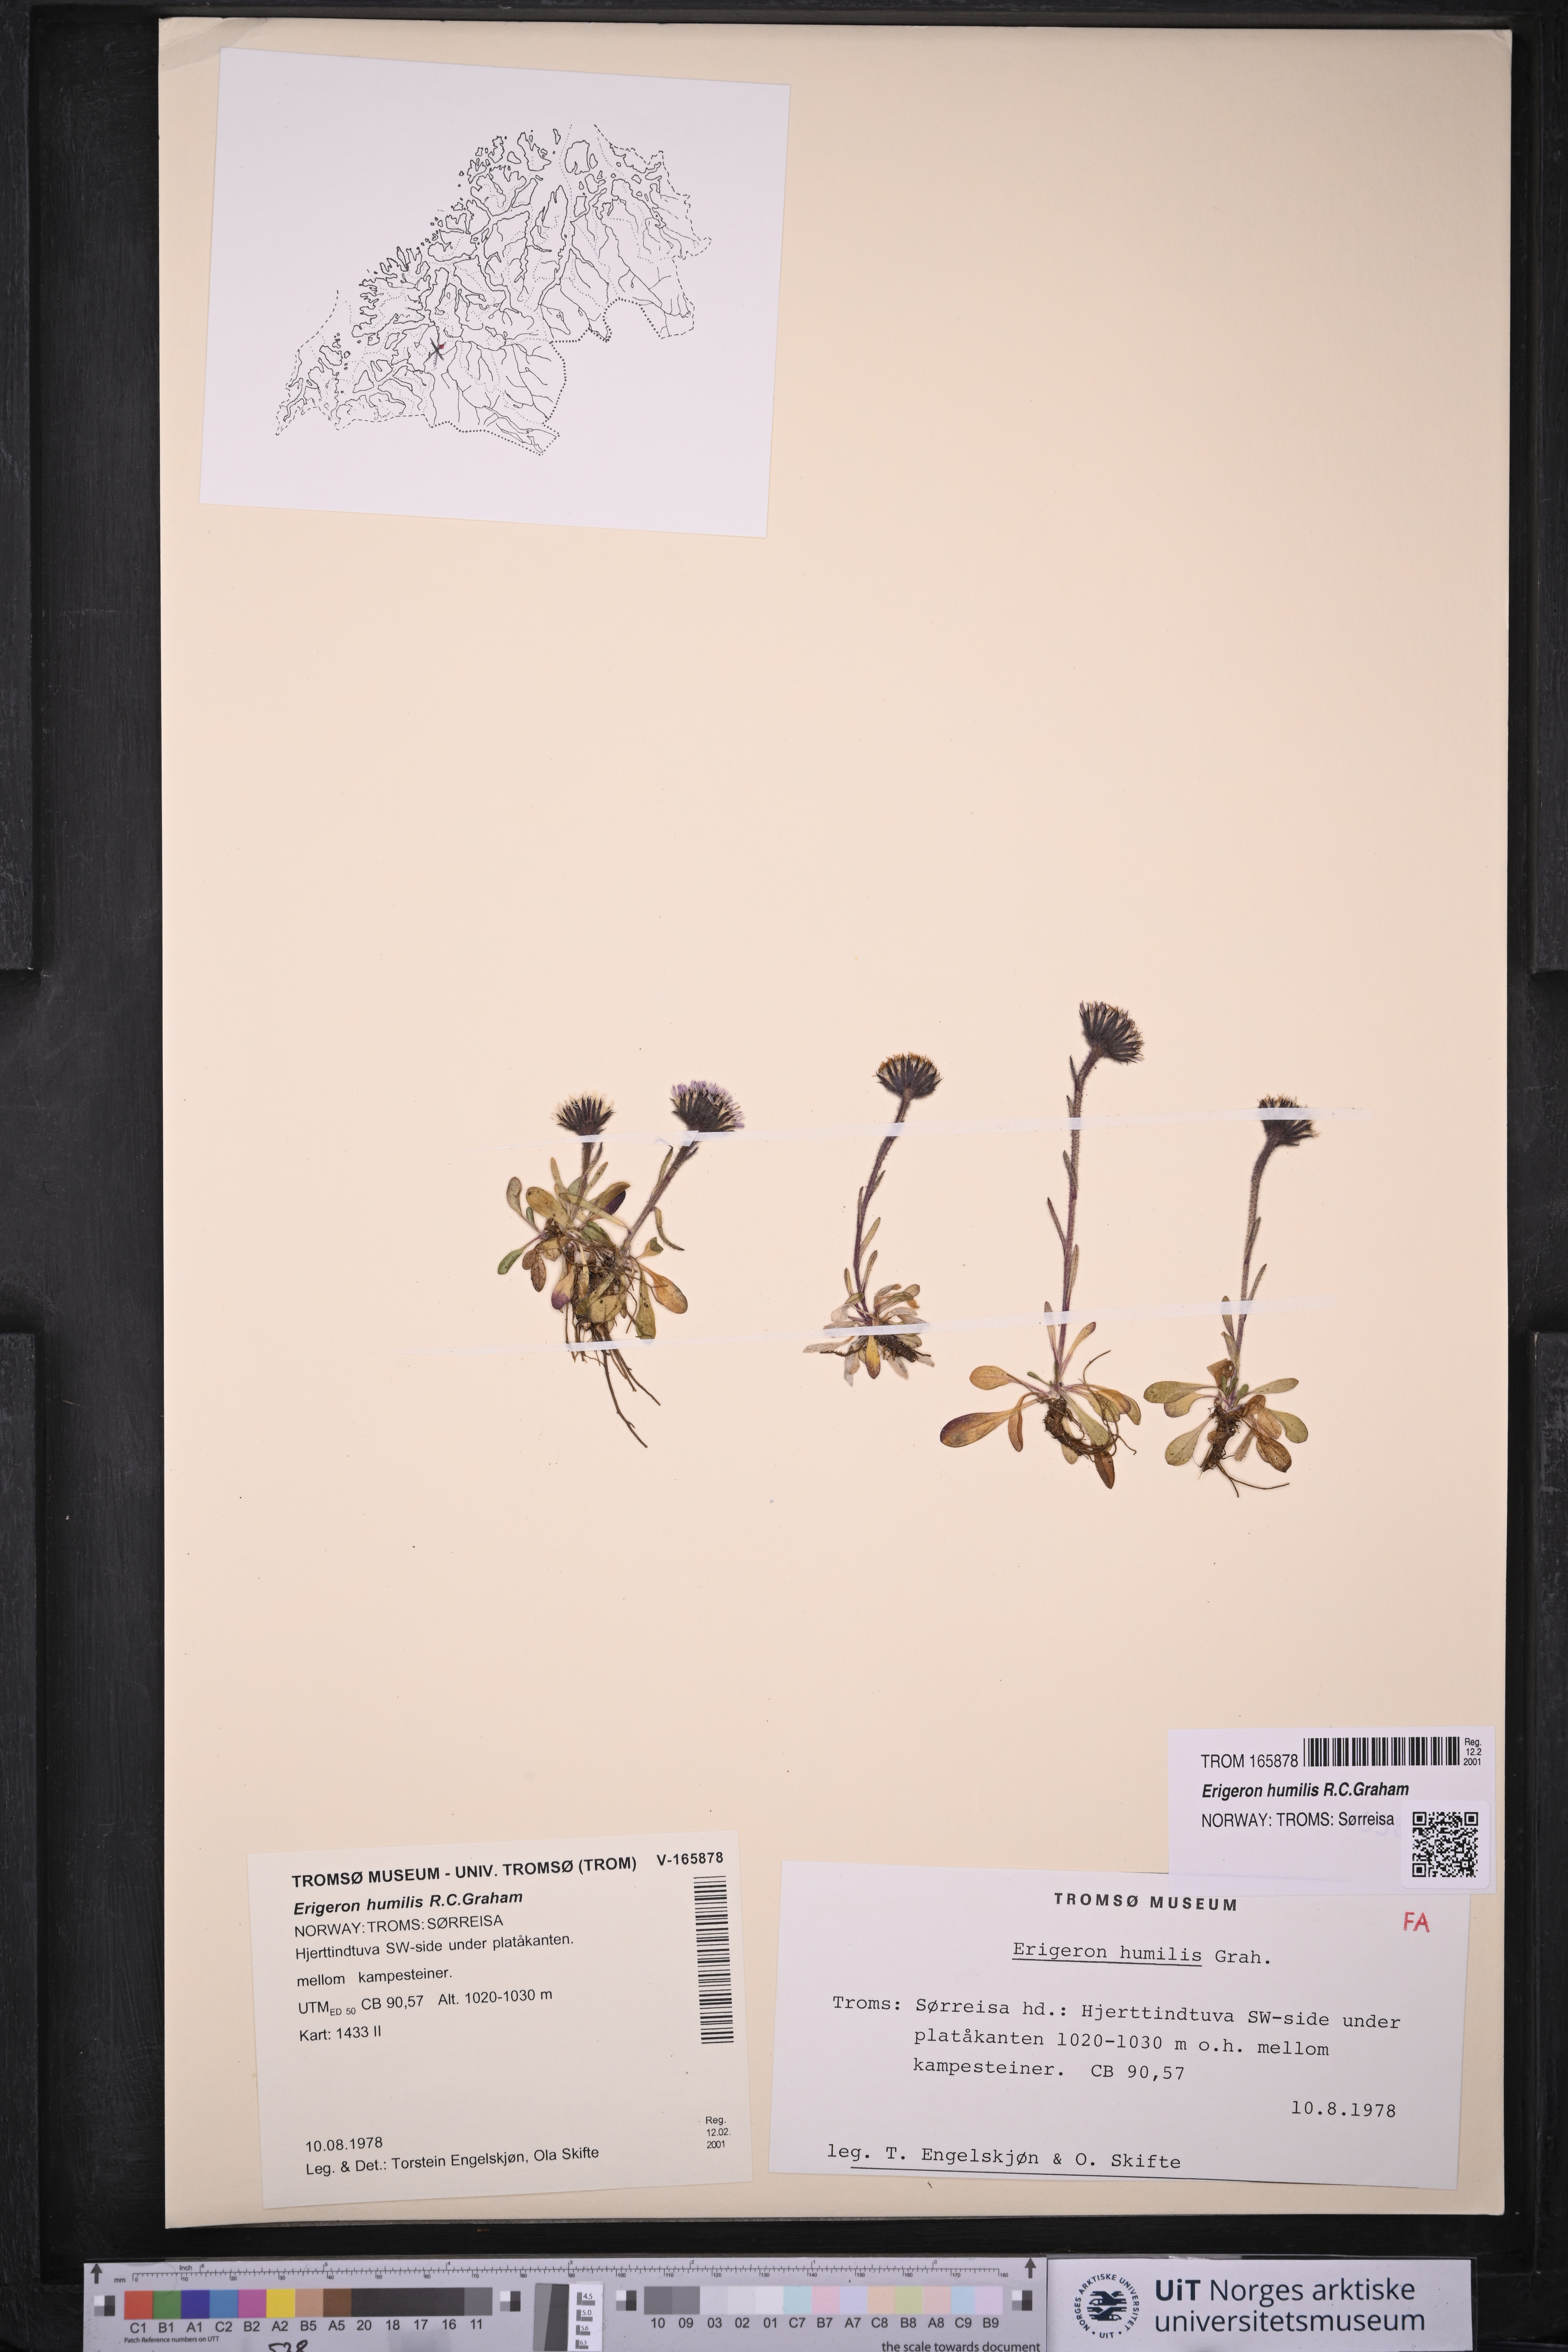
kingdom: Plantae
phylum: Tracheophyta
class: Magnoliopsida
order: Asterales
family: Asteraceae
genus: Erigeron
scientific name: Erigeron humilis
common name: Arctic-alpine fleabane
